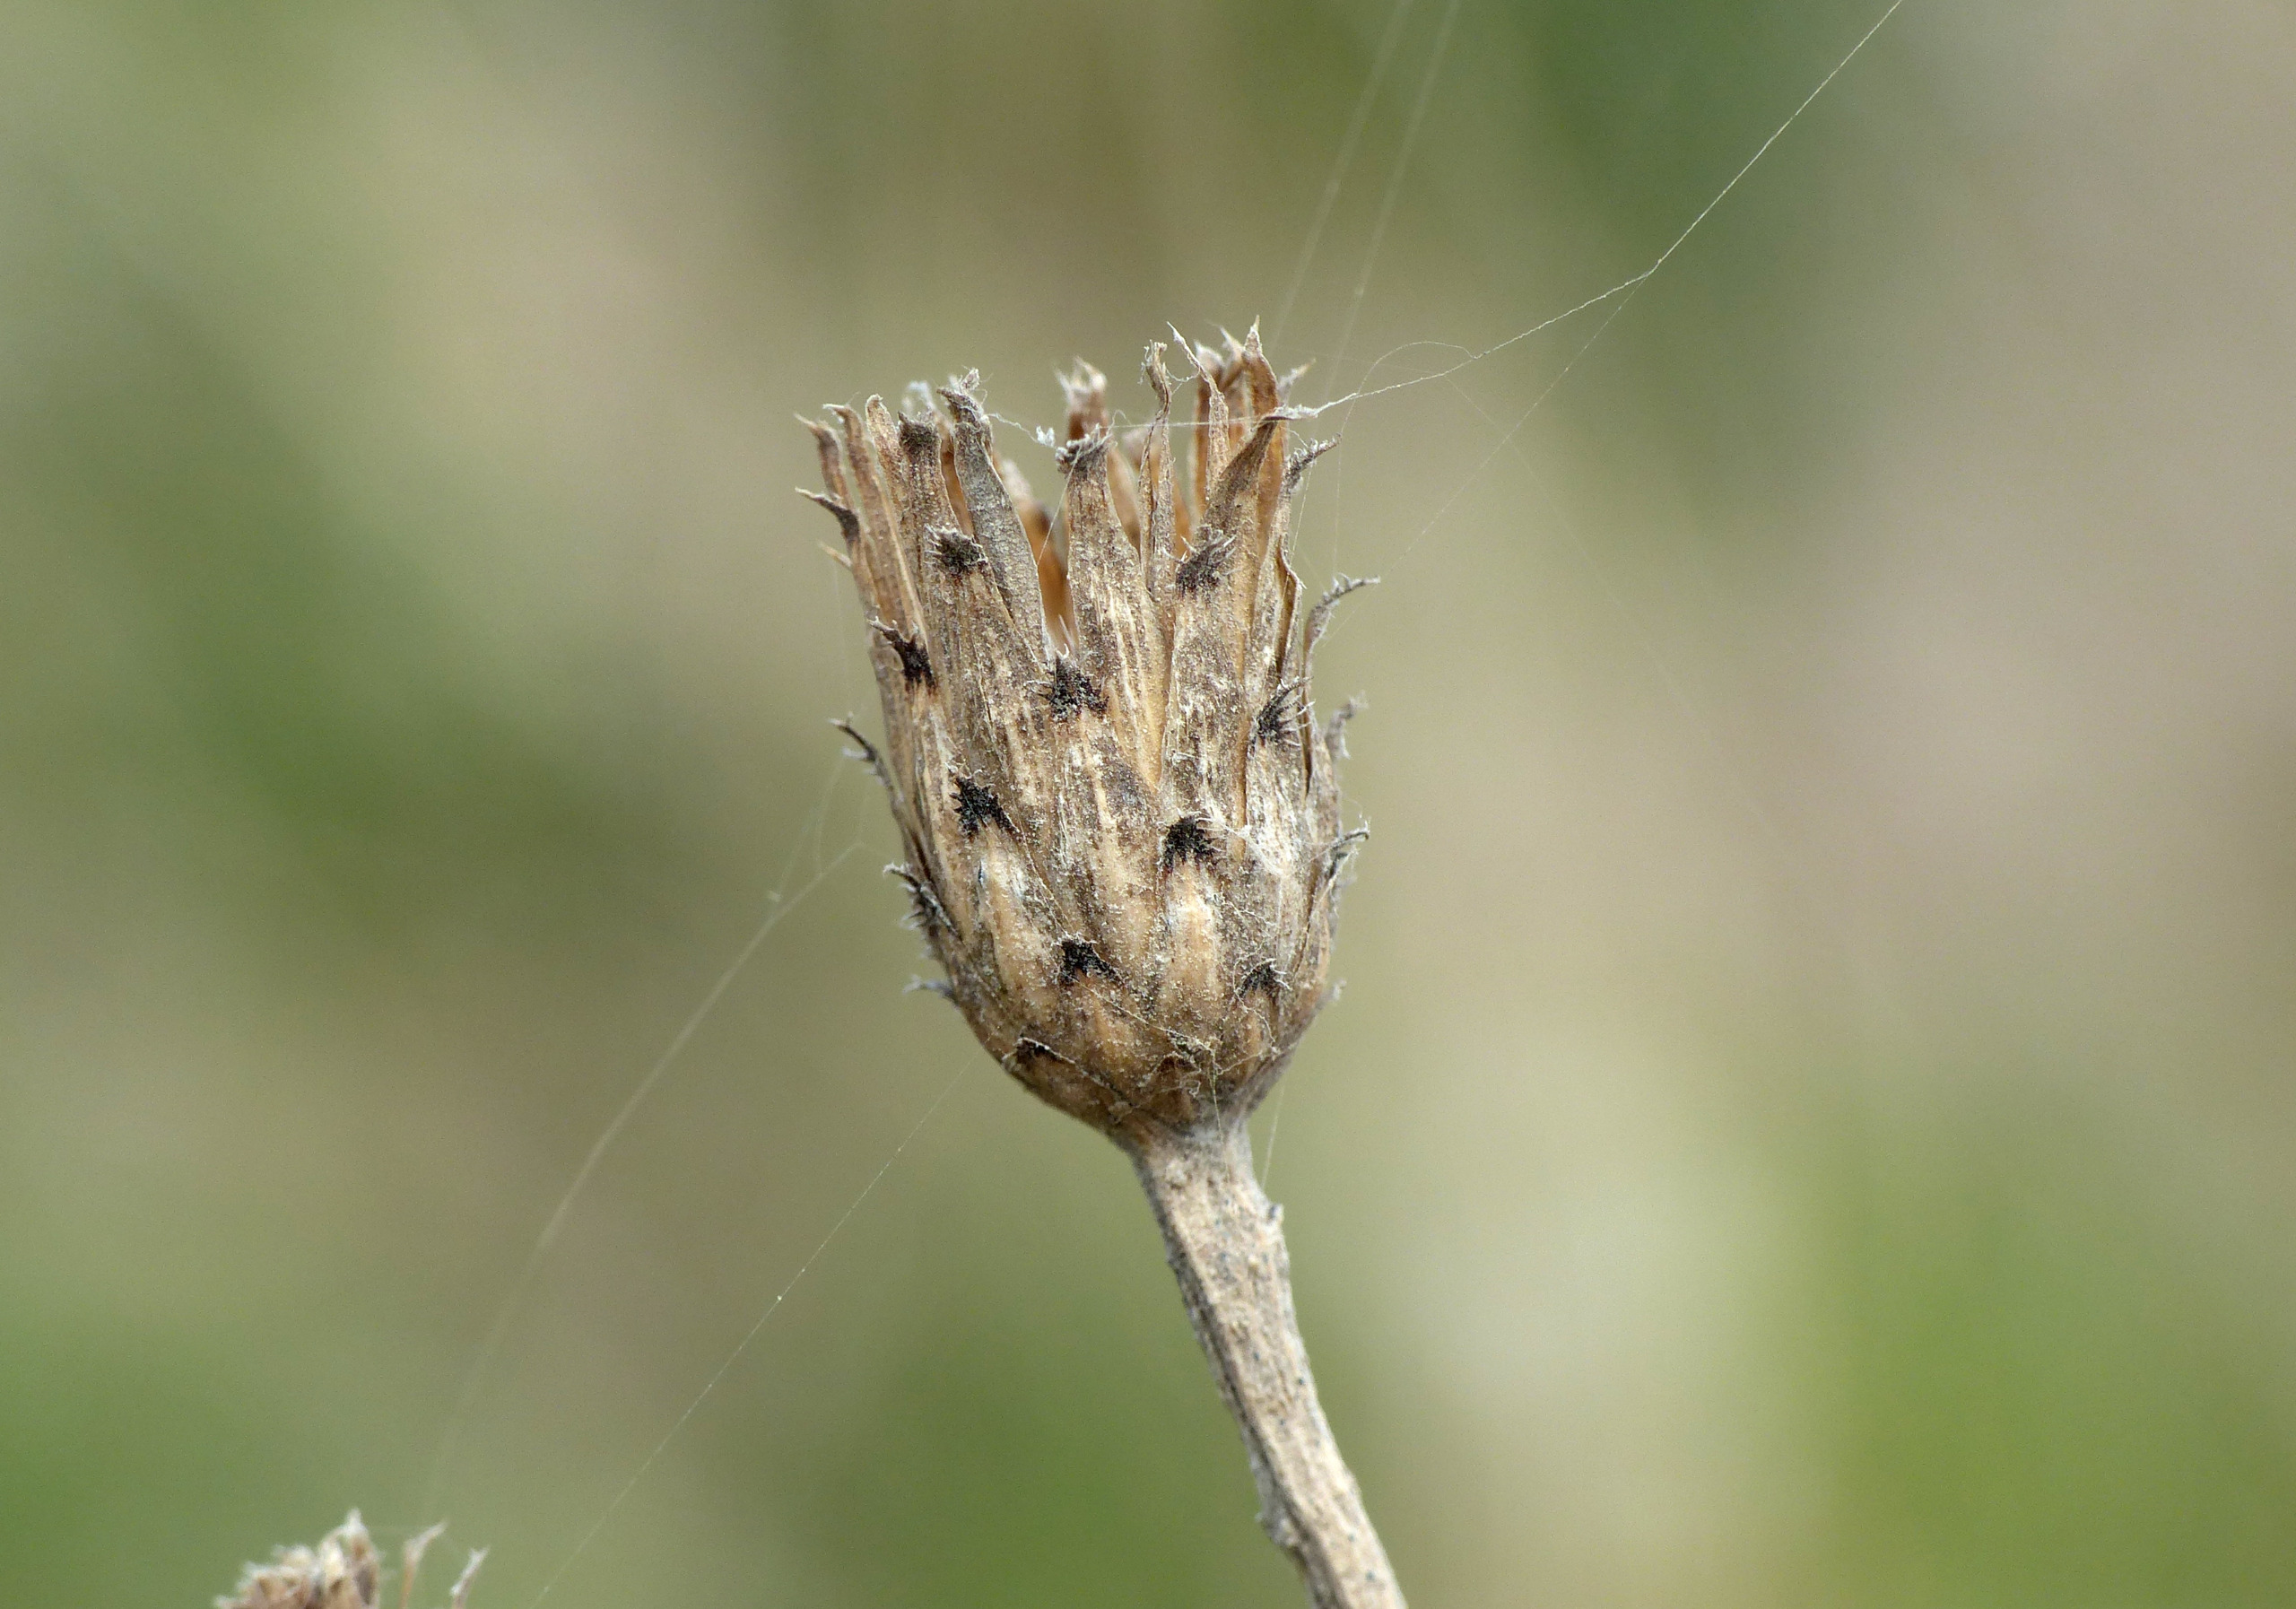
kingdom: Plantae
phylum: Tracheophyta
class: Magnoliopsida
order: Asterales
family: Asteraceae
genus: Centaurea
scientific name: Centaurea stoebe
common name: Småhovedet knopurt
